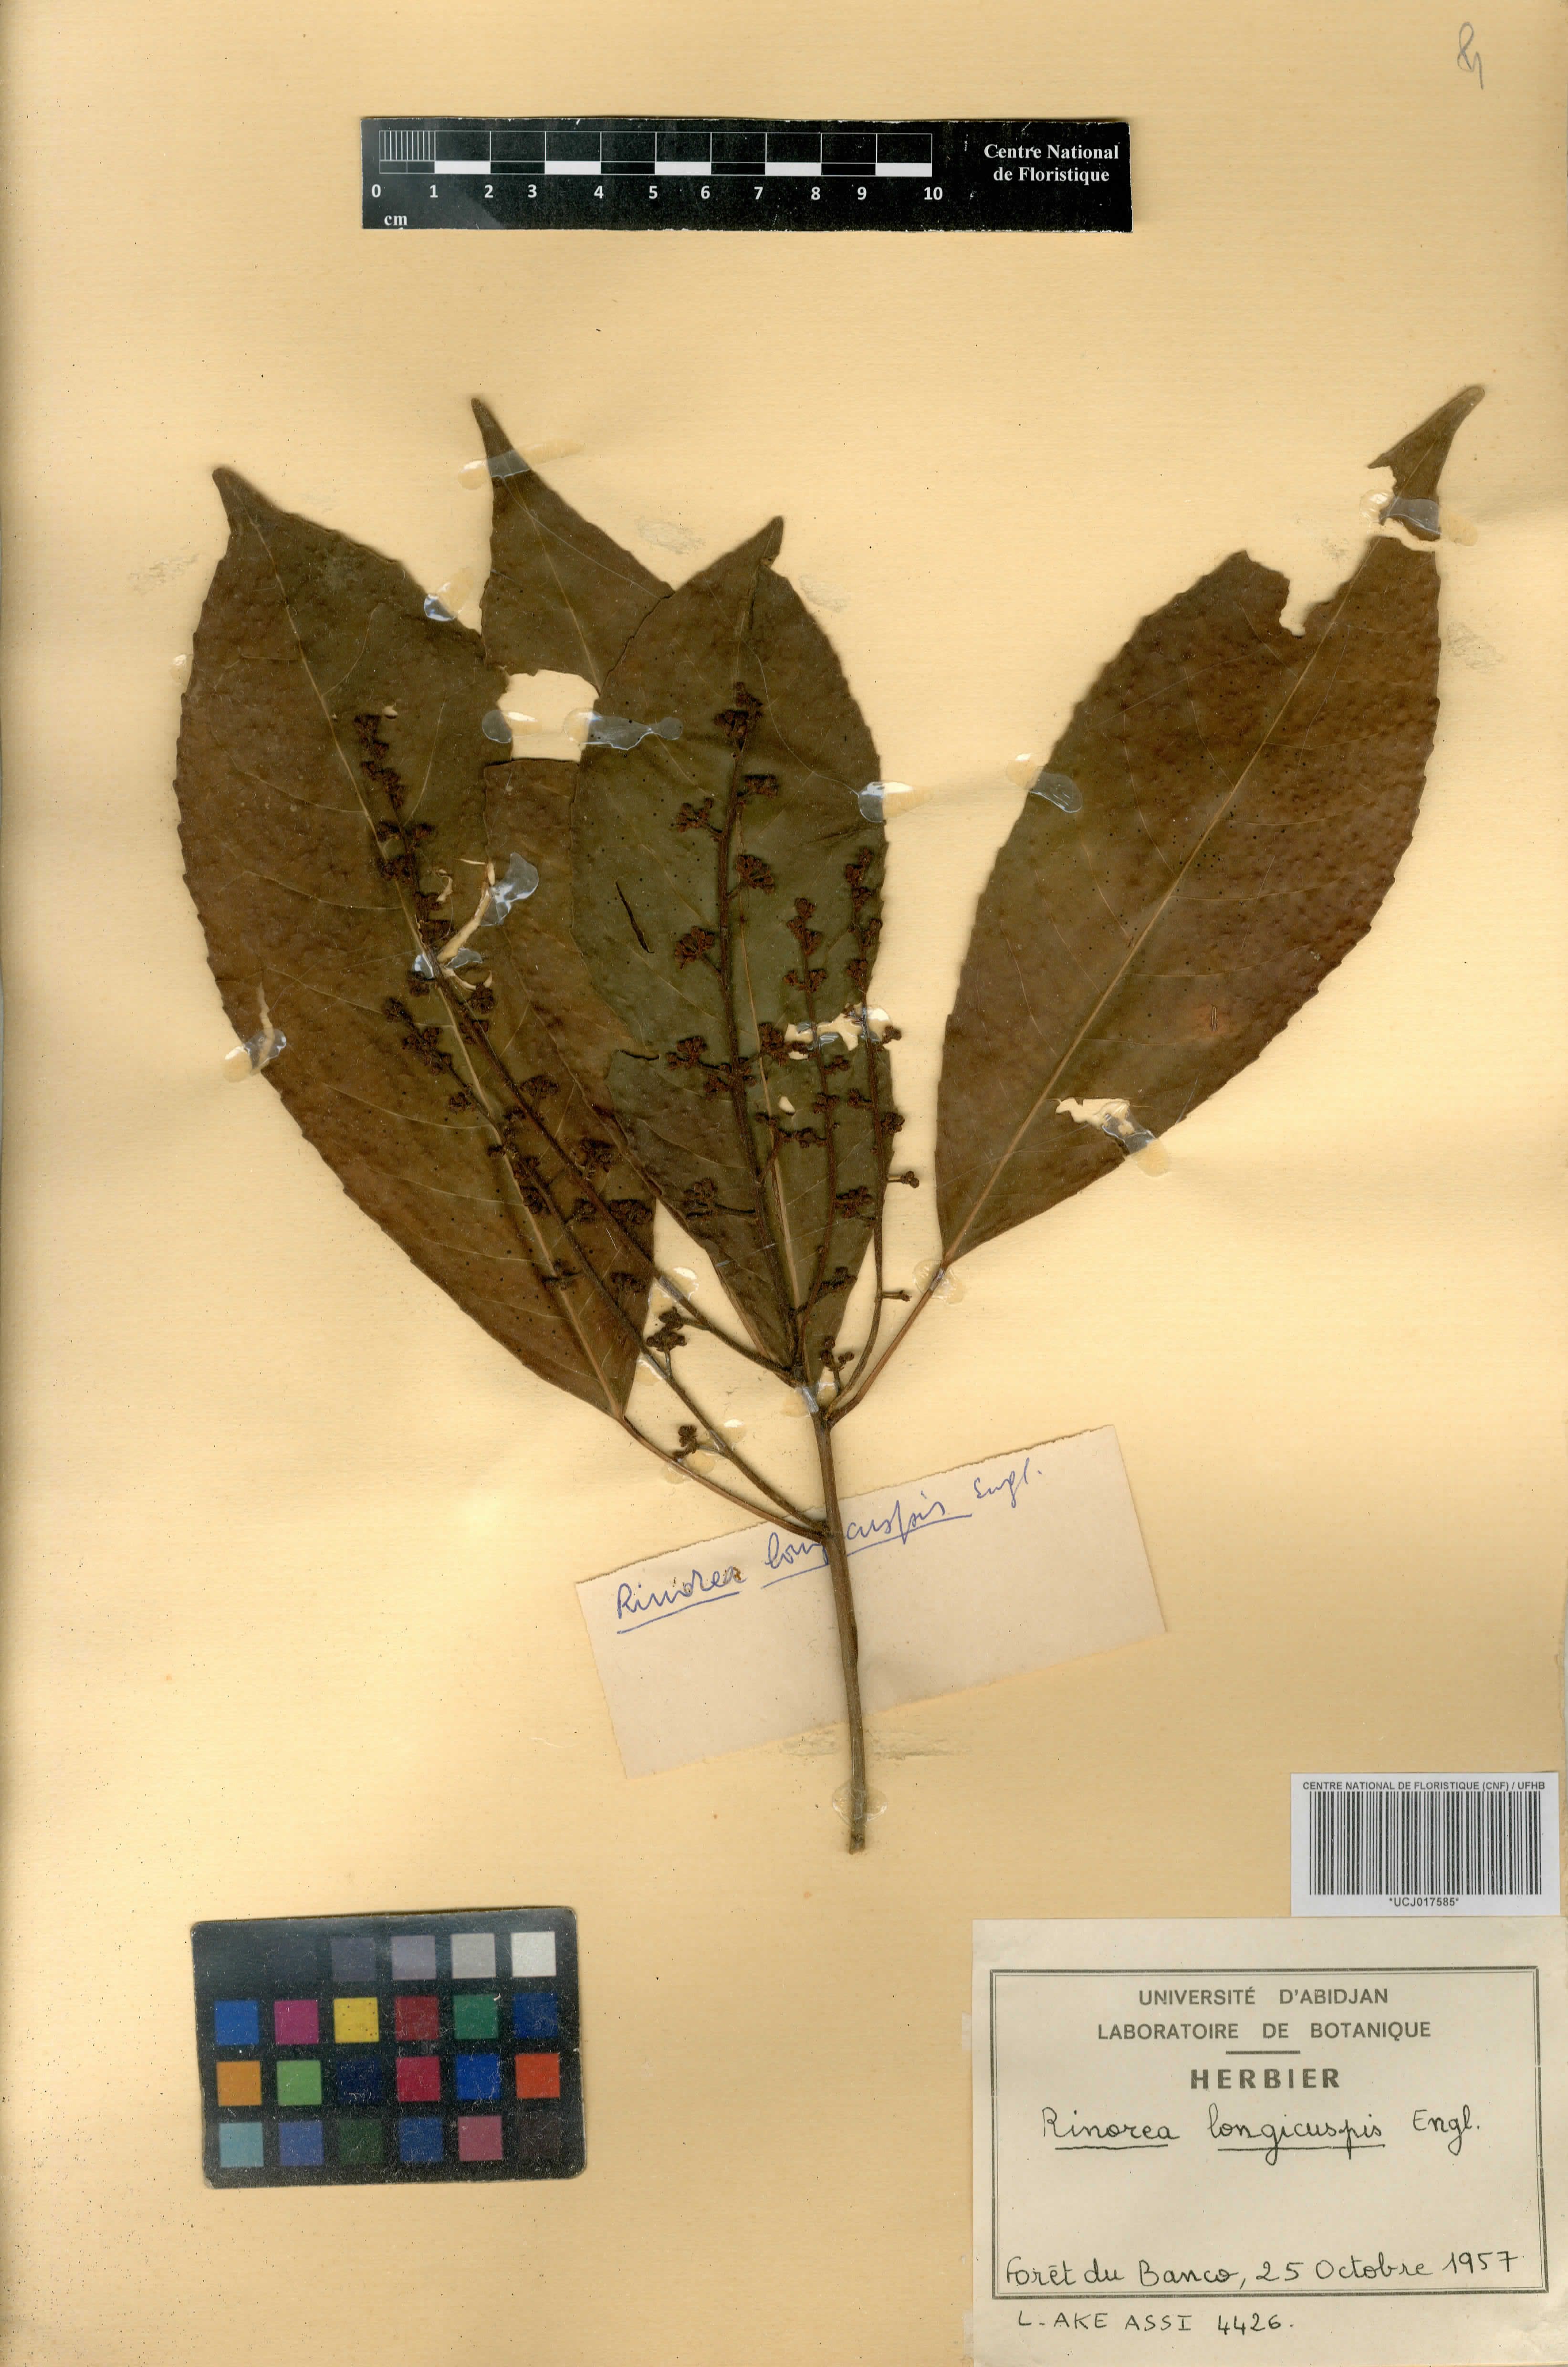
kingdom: Plantae
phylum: Tracheophyta
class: Magnoliopsida
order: Malpighiales
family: Violaceae
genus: Rinorea
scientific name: Rinorea welwitschii
